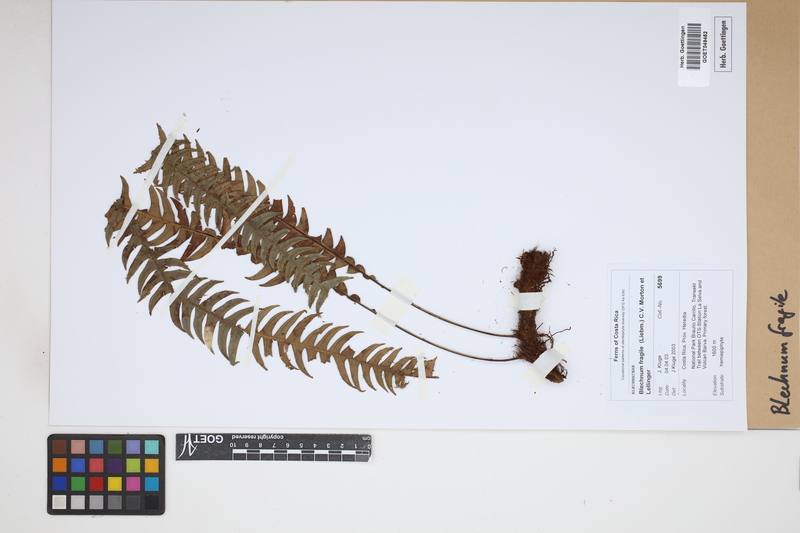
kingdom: Plantae
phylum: Tracheophyta
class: Polypodiopsida
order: Polypodiales
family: Blechnaceae
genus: Lomaridium
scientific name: Lomaridium fragile
